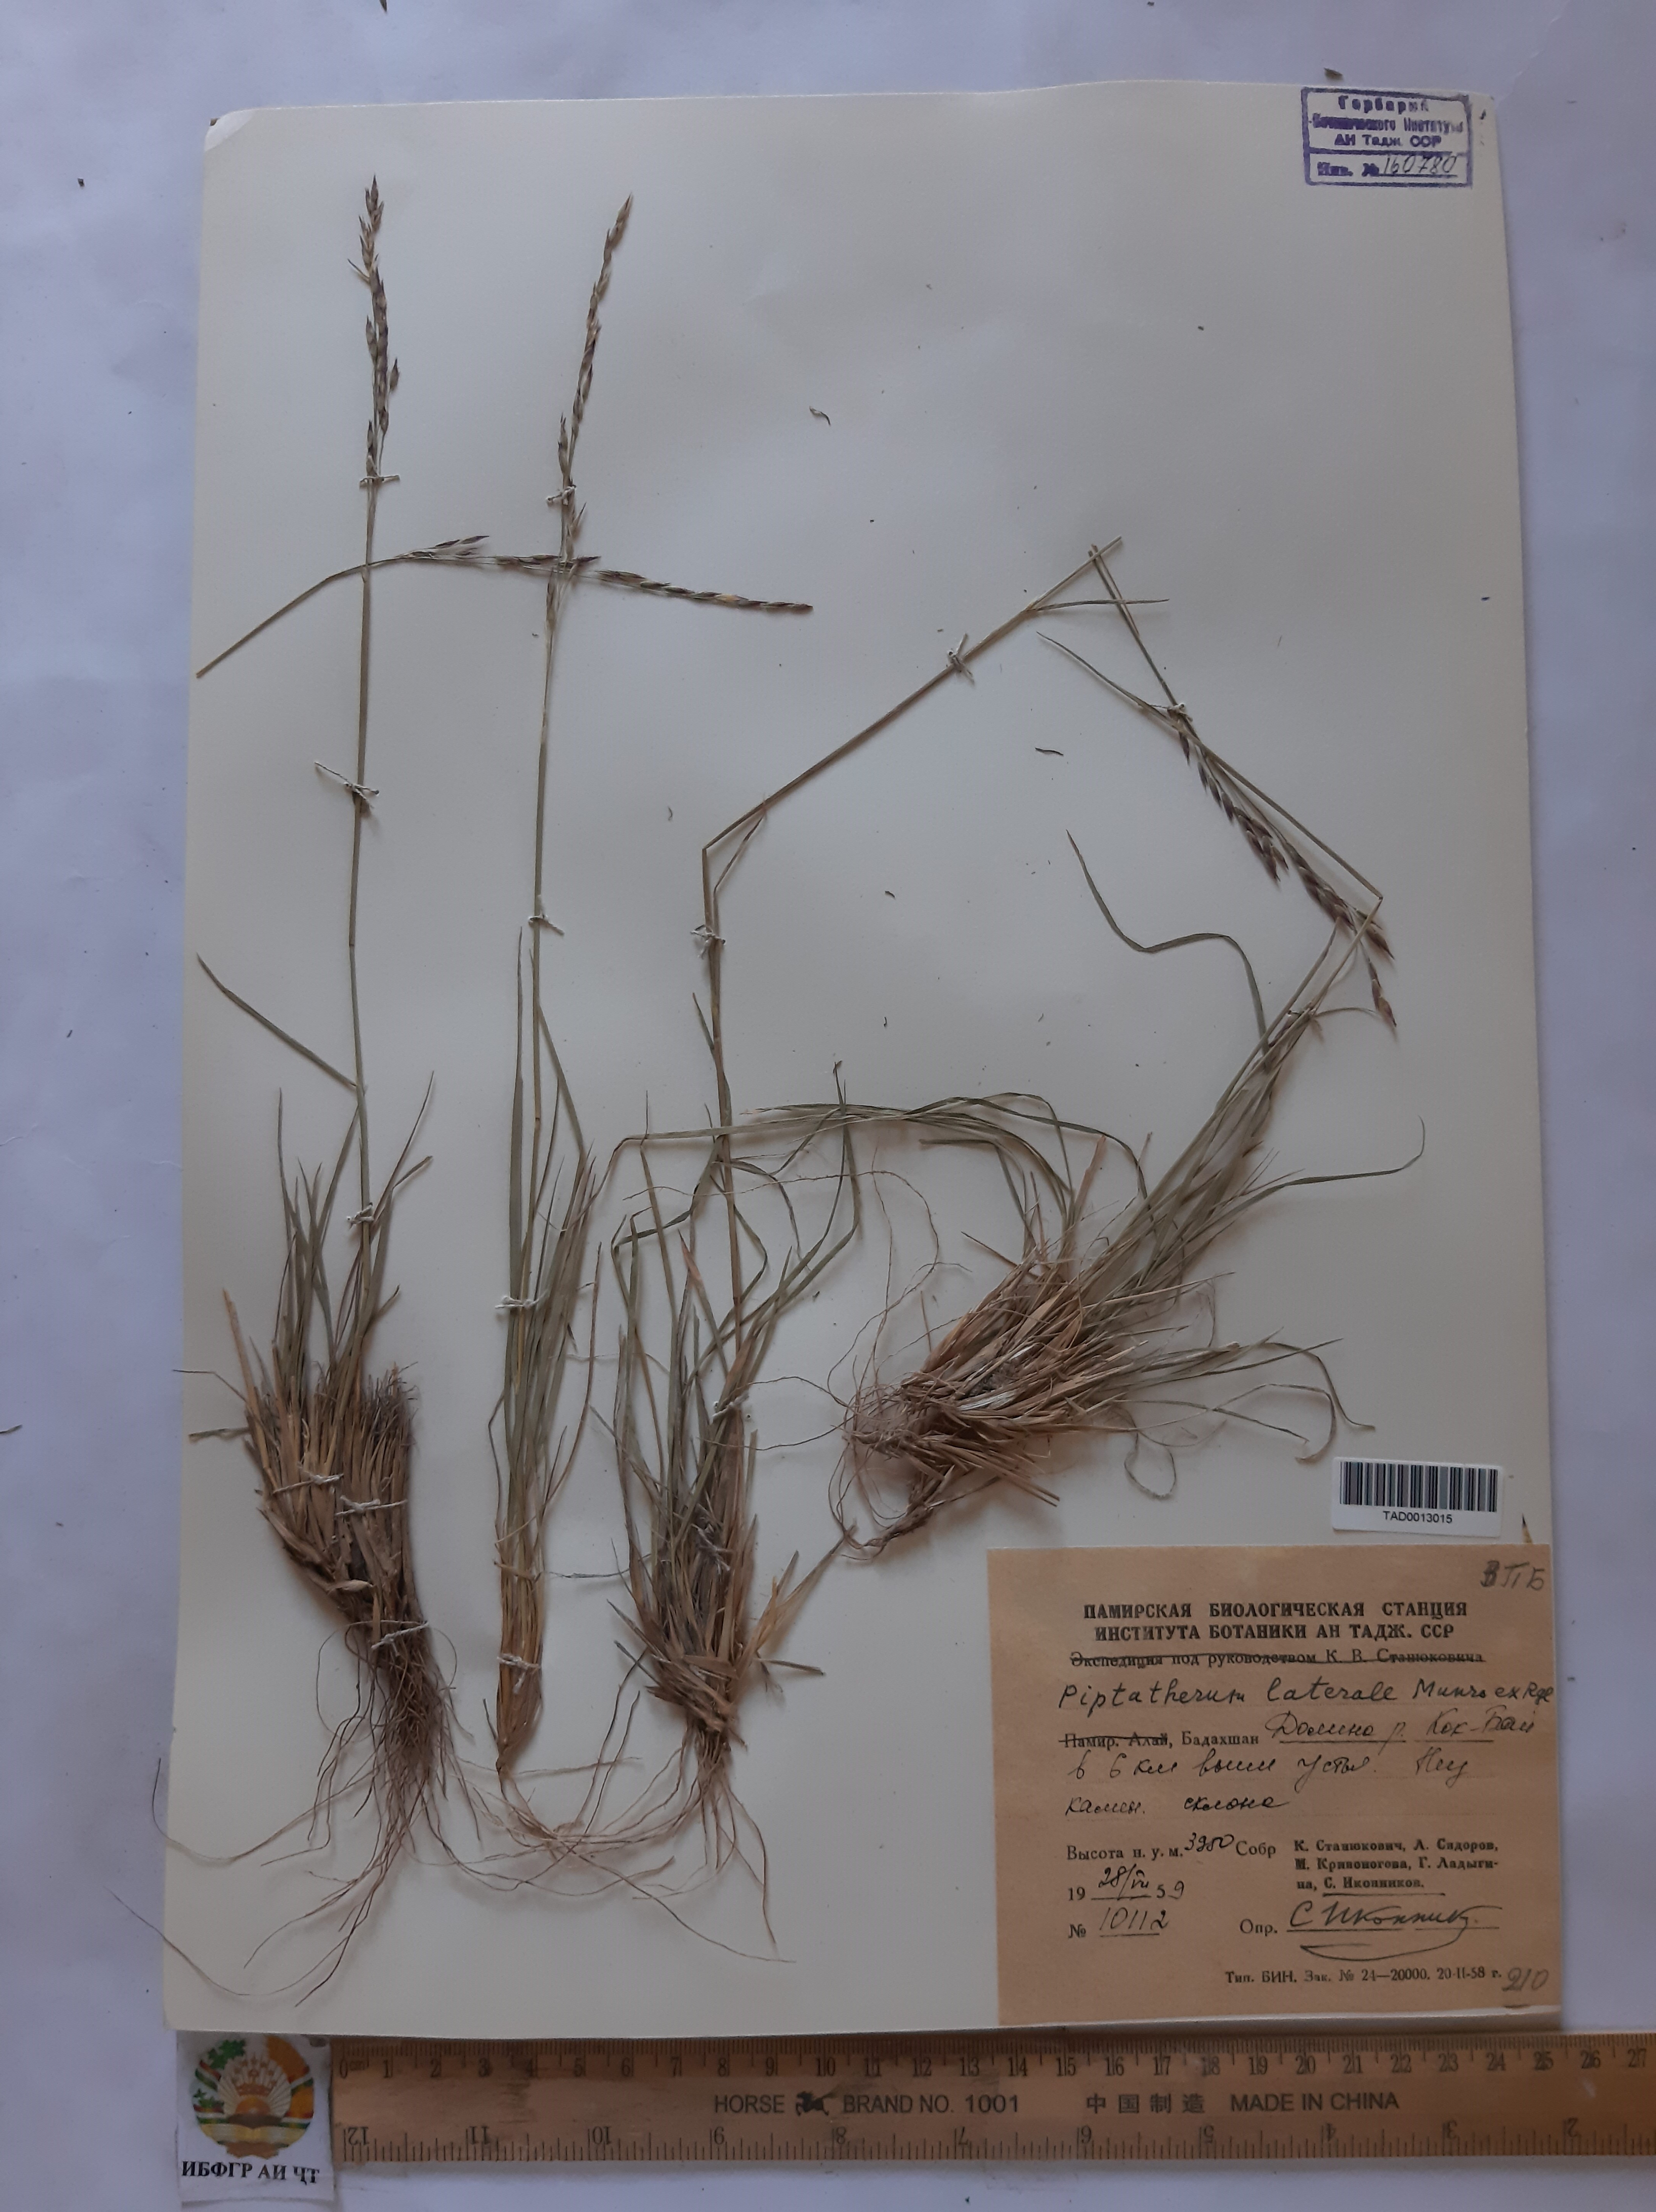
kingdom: Plantae
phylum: Tracheophyta
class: Liliopsida
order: Poales
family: Poaceae
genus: Piptatherum
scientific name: Piptatherum laterale
